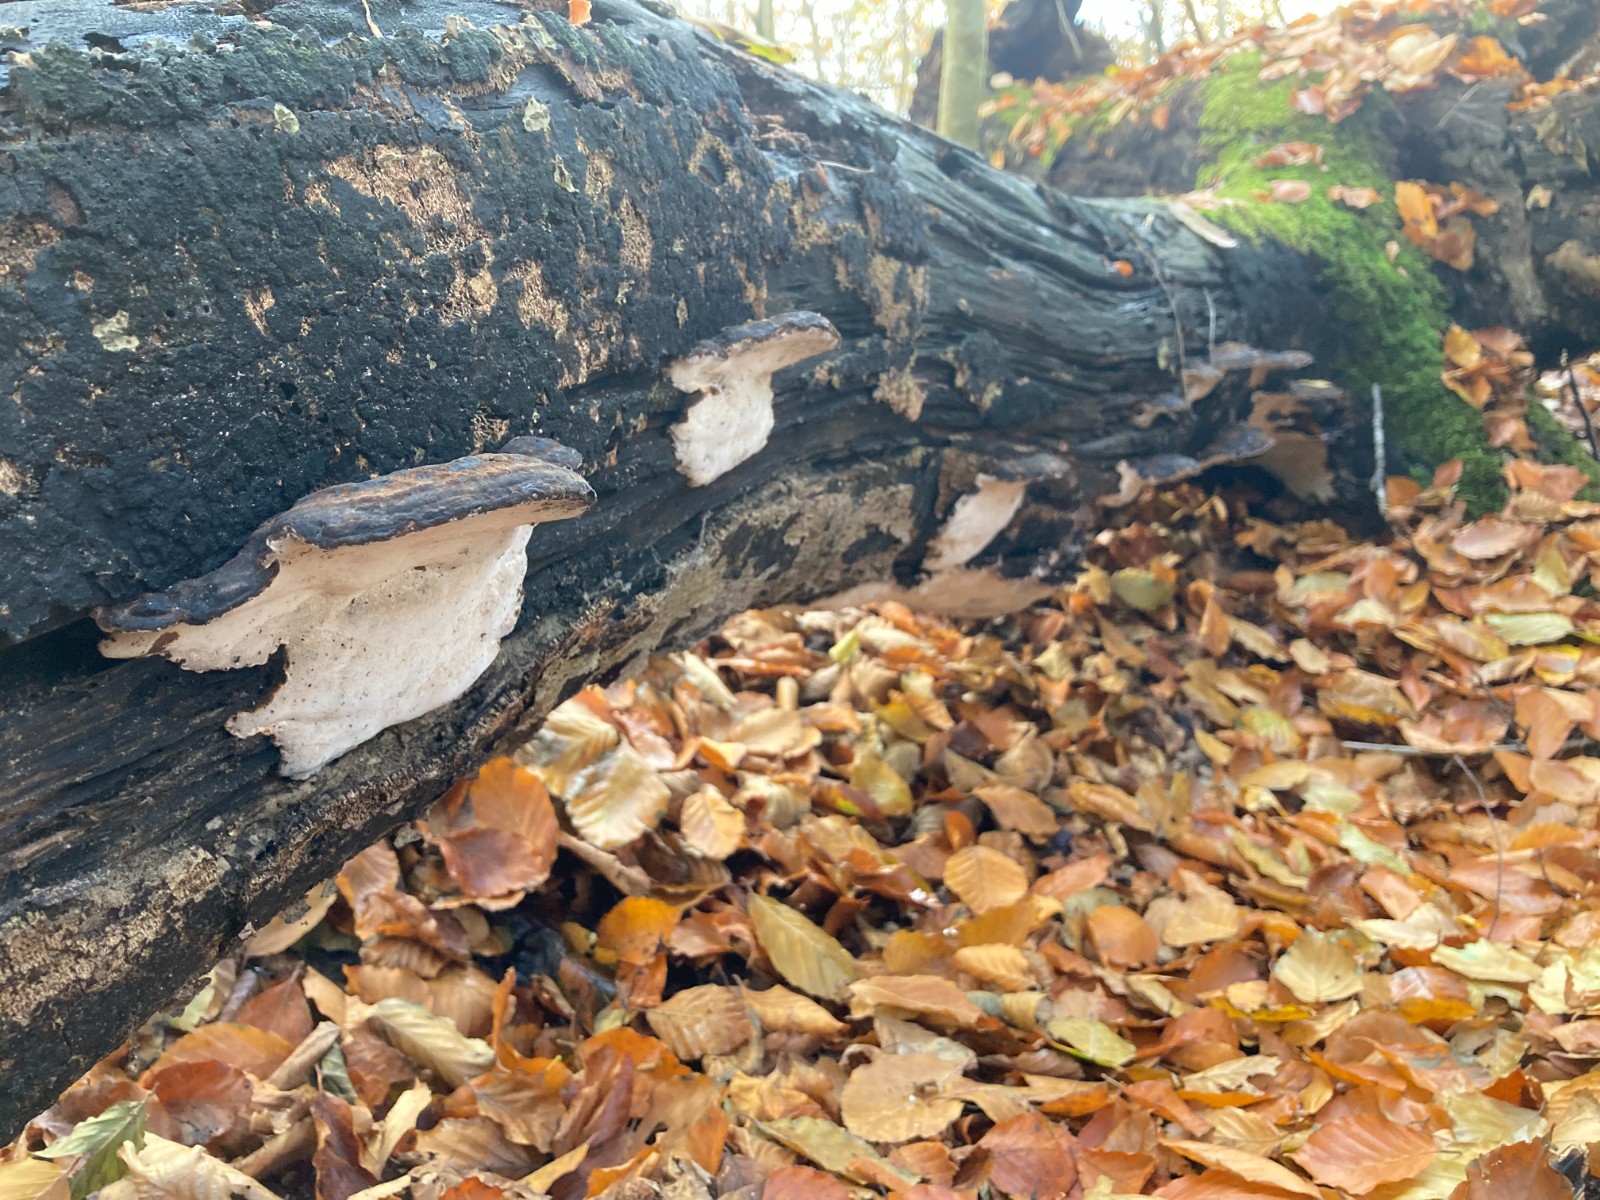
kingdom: Fungi
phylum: Basidiomycota
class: Agaricomycetes
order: Polyporales
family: Ischnodermataceae
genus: Ischnoderma
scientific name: Ischnoderma resinosum
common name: løv-tjæreporesvamp
